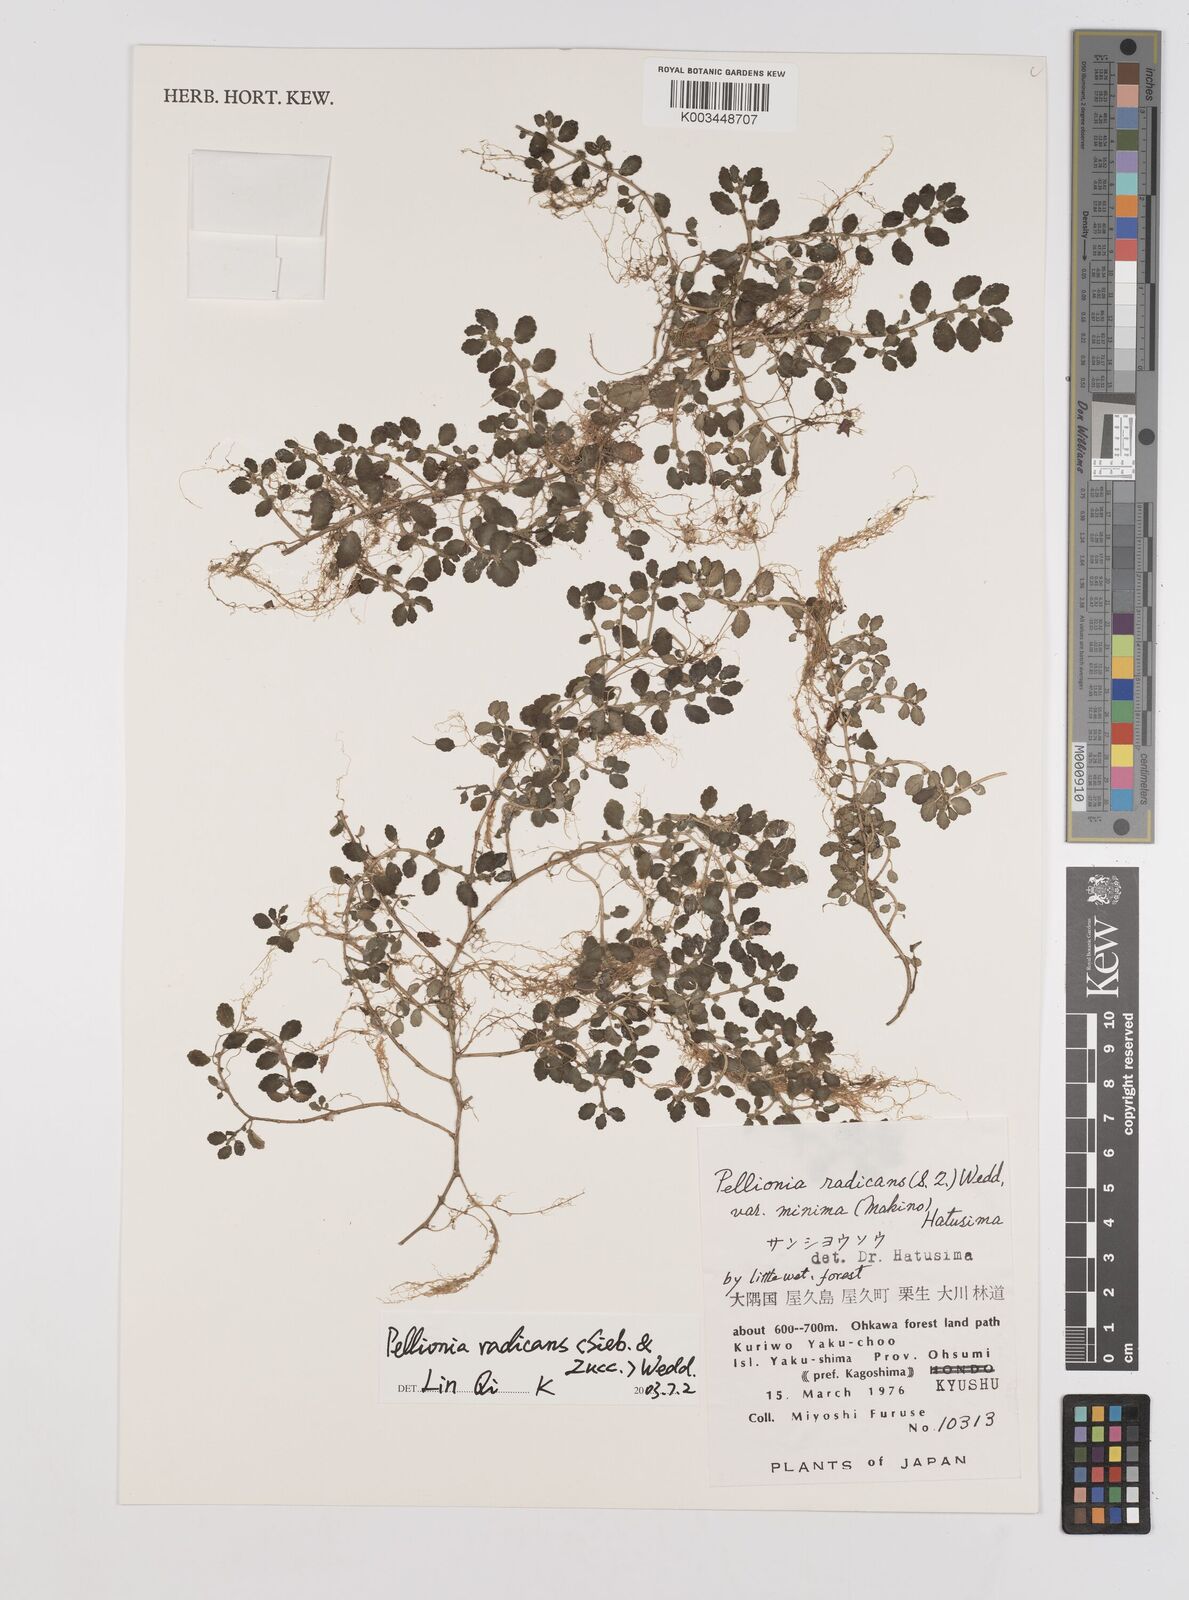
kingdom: Plantae
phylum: Tracheophyta
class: Magnoliopsida
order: Rosales
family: Urticaceae
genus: Elatostema
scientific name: Elatostema radicans
